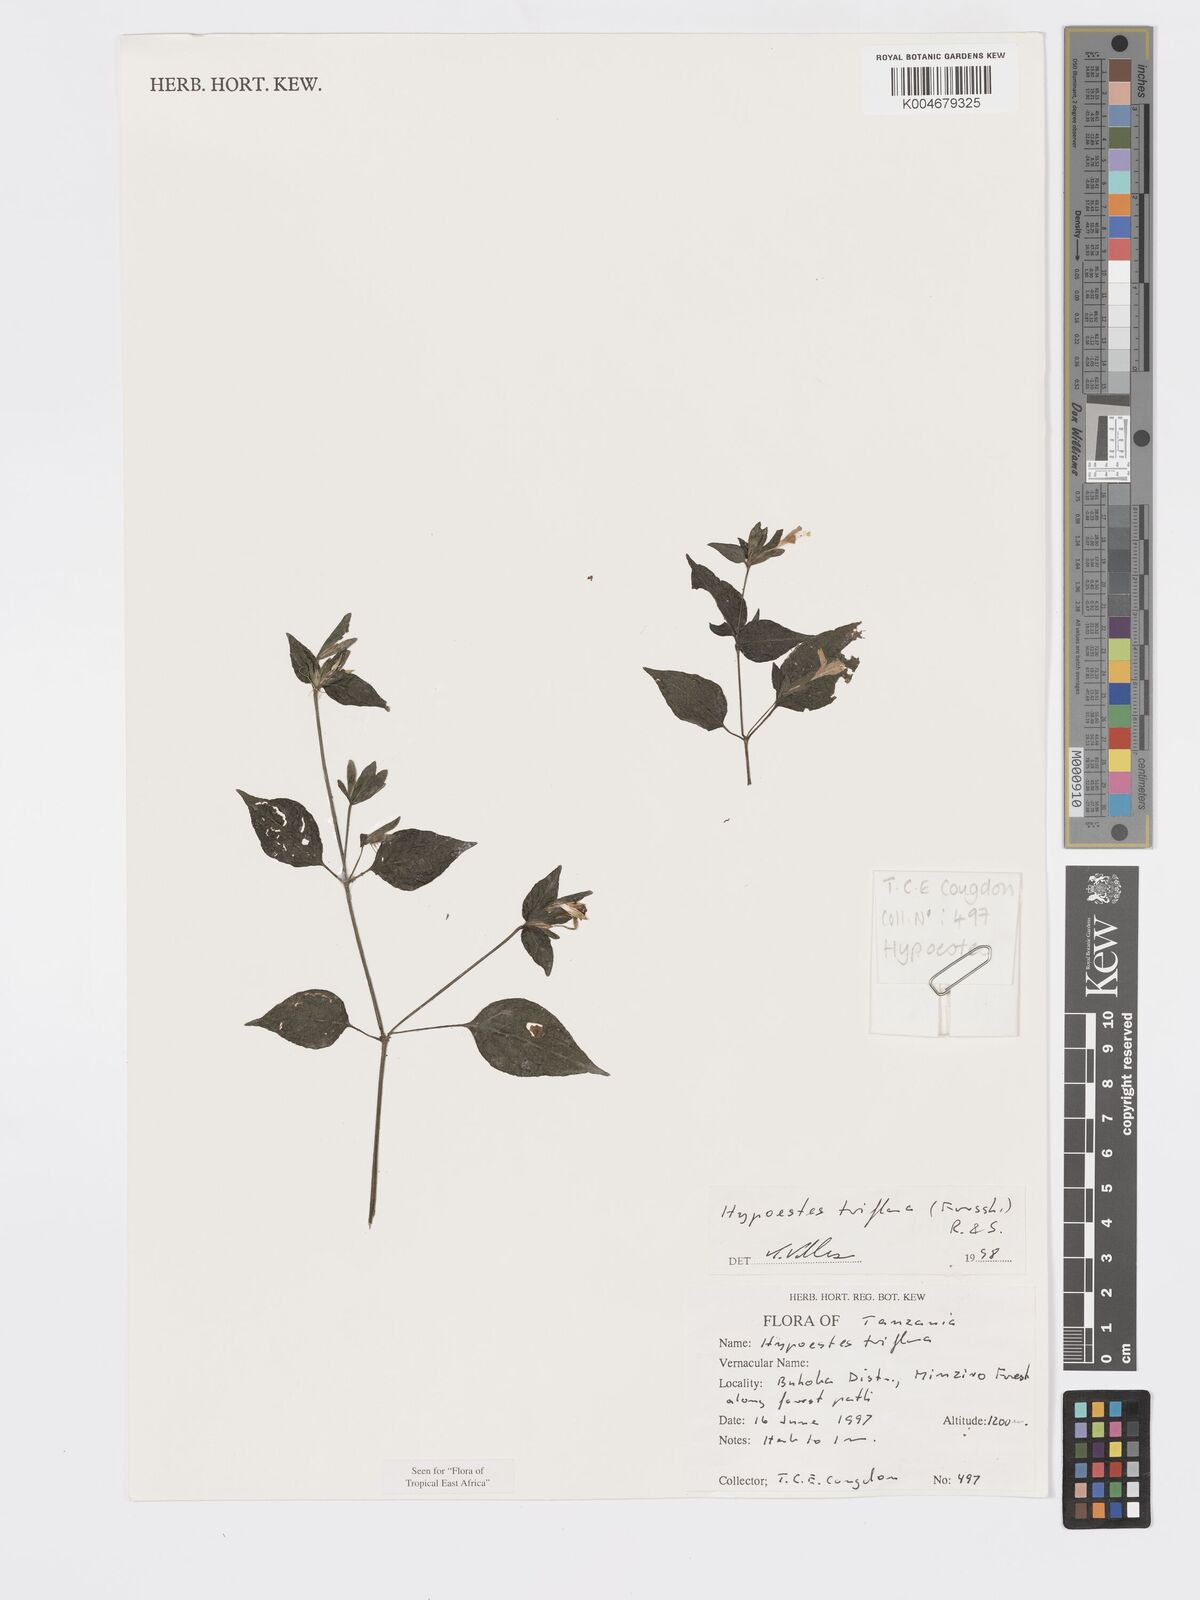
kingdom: Plantae
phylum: Tracheophyta
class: Magnoliopsida
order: Lamiales
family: Acanthaceae
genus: Hypoestes
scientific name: Hypoestes triflora
